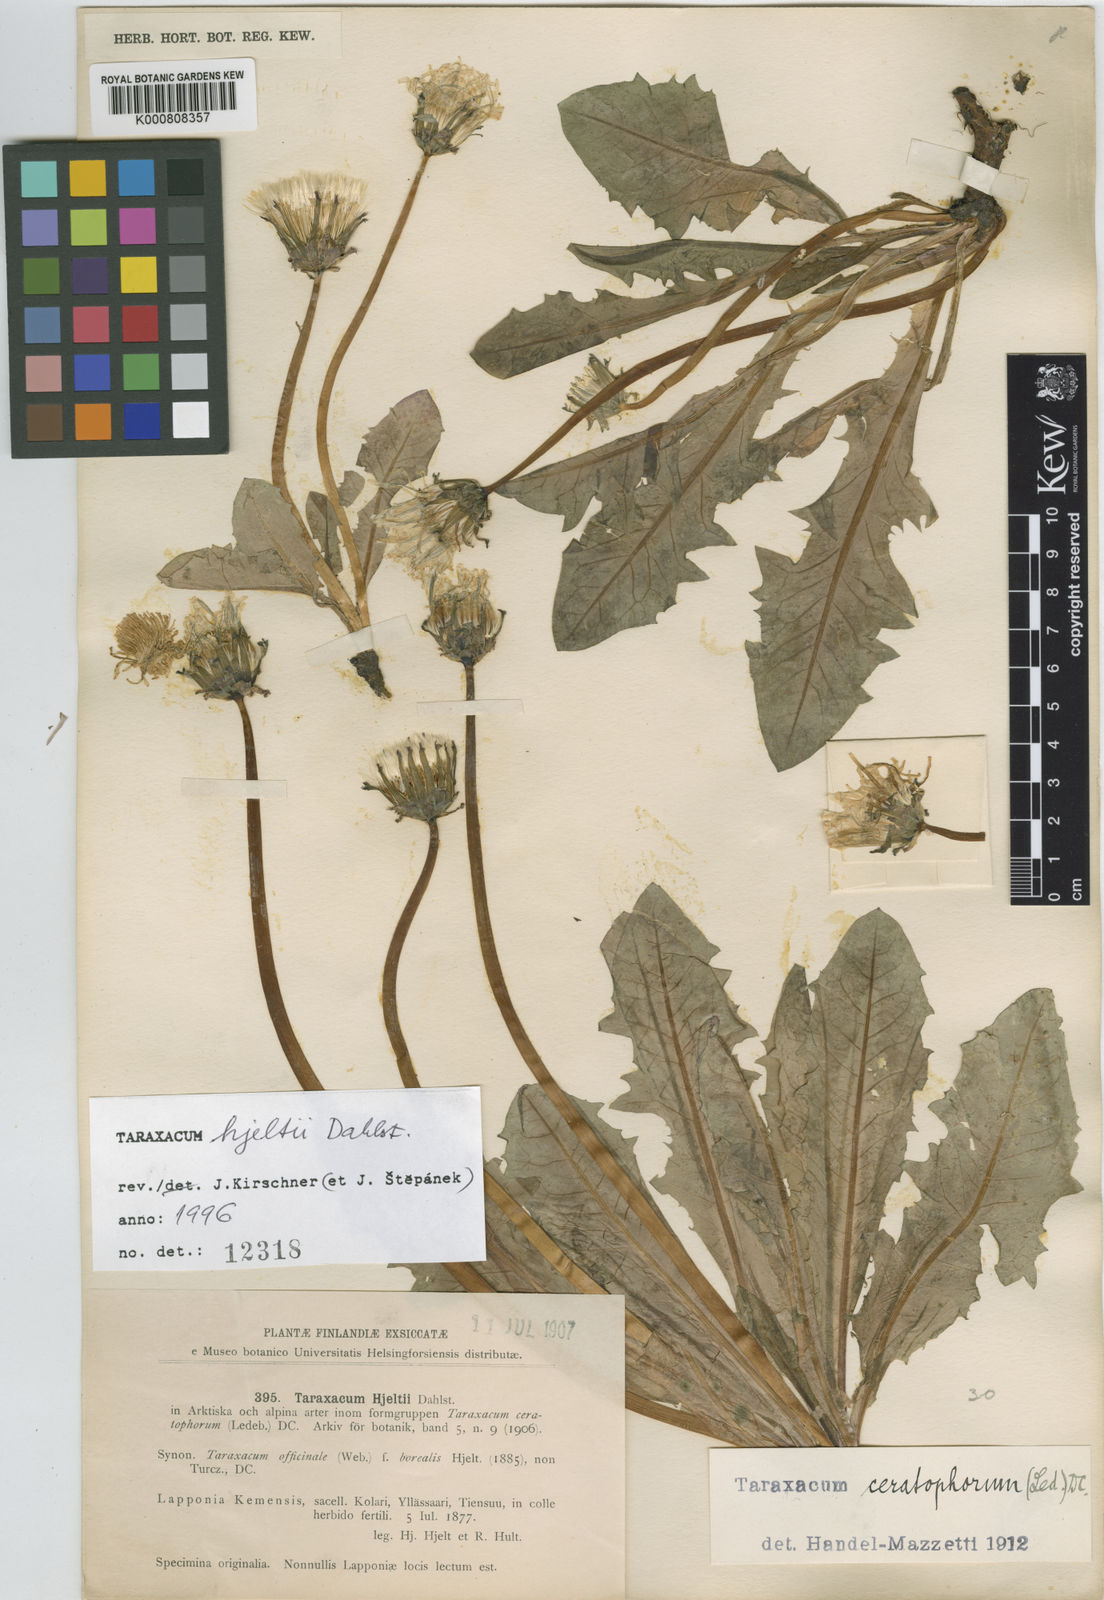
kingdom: Plantae
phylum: Tracheophyta
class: Magnoliopsida
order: Asterales
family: Asteraceae
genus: Taraxacum
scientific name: Taraxacum hjeltii
